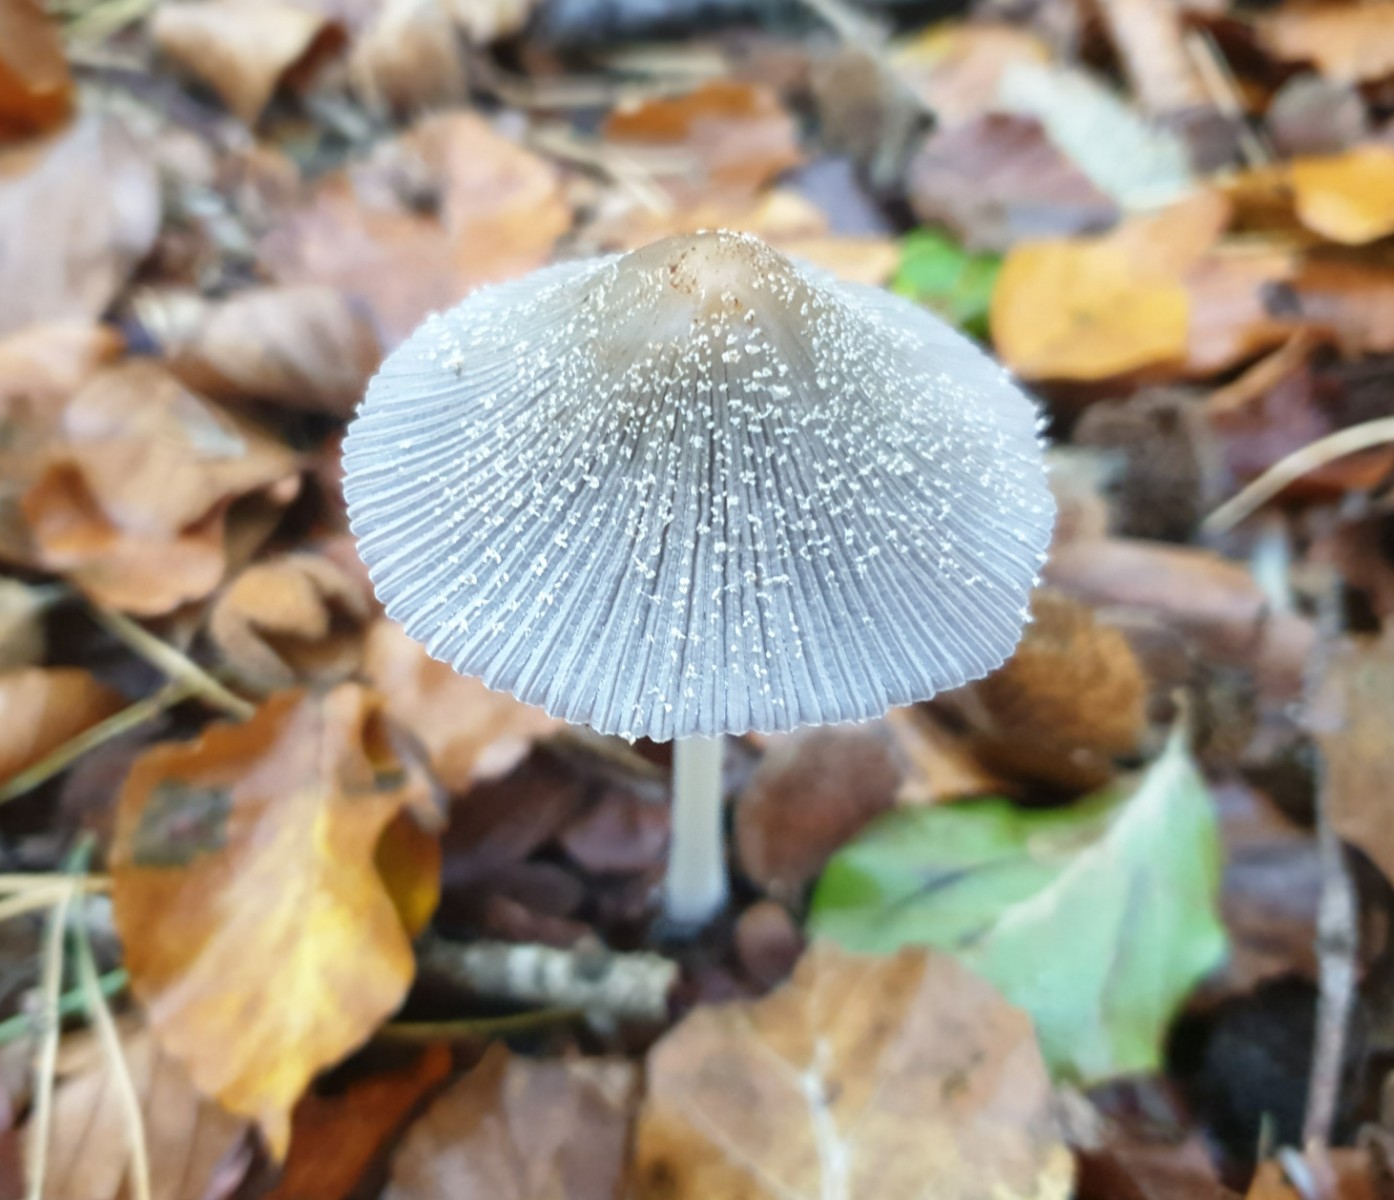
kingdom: Fungi
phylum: Basidiomycota
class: Agaricomycetes
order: Agaricales
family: Psathyrellaceae
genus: Coprinopsis
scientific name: Coprinopsis
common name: blækhat
